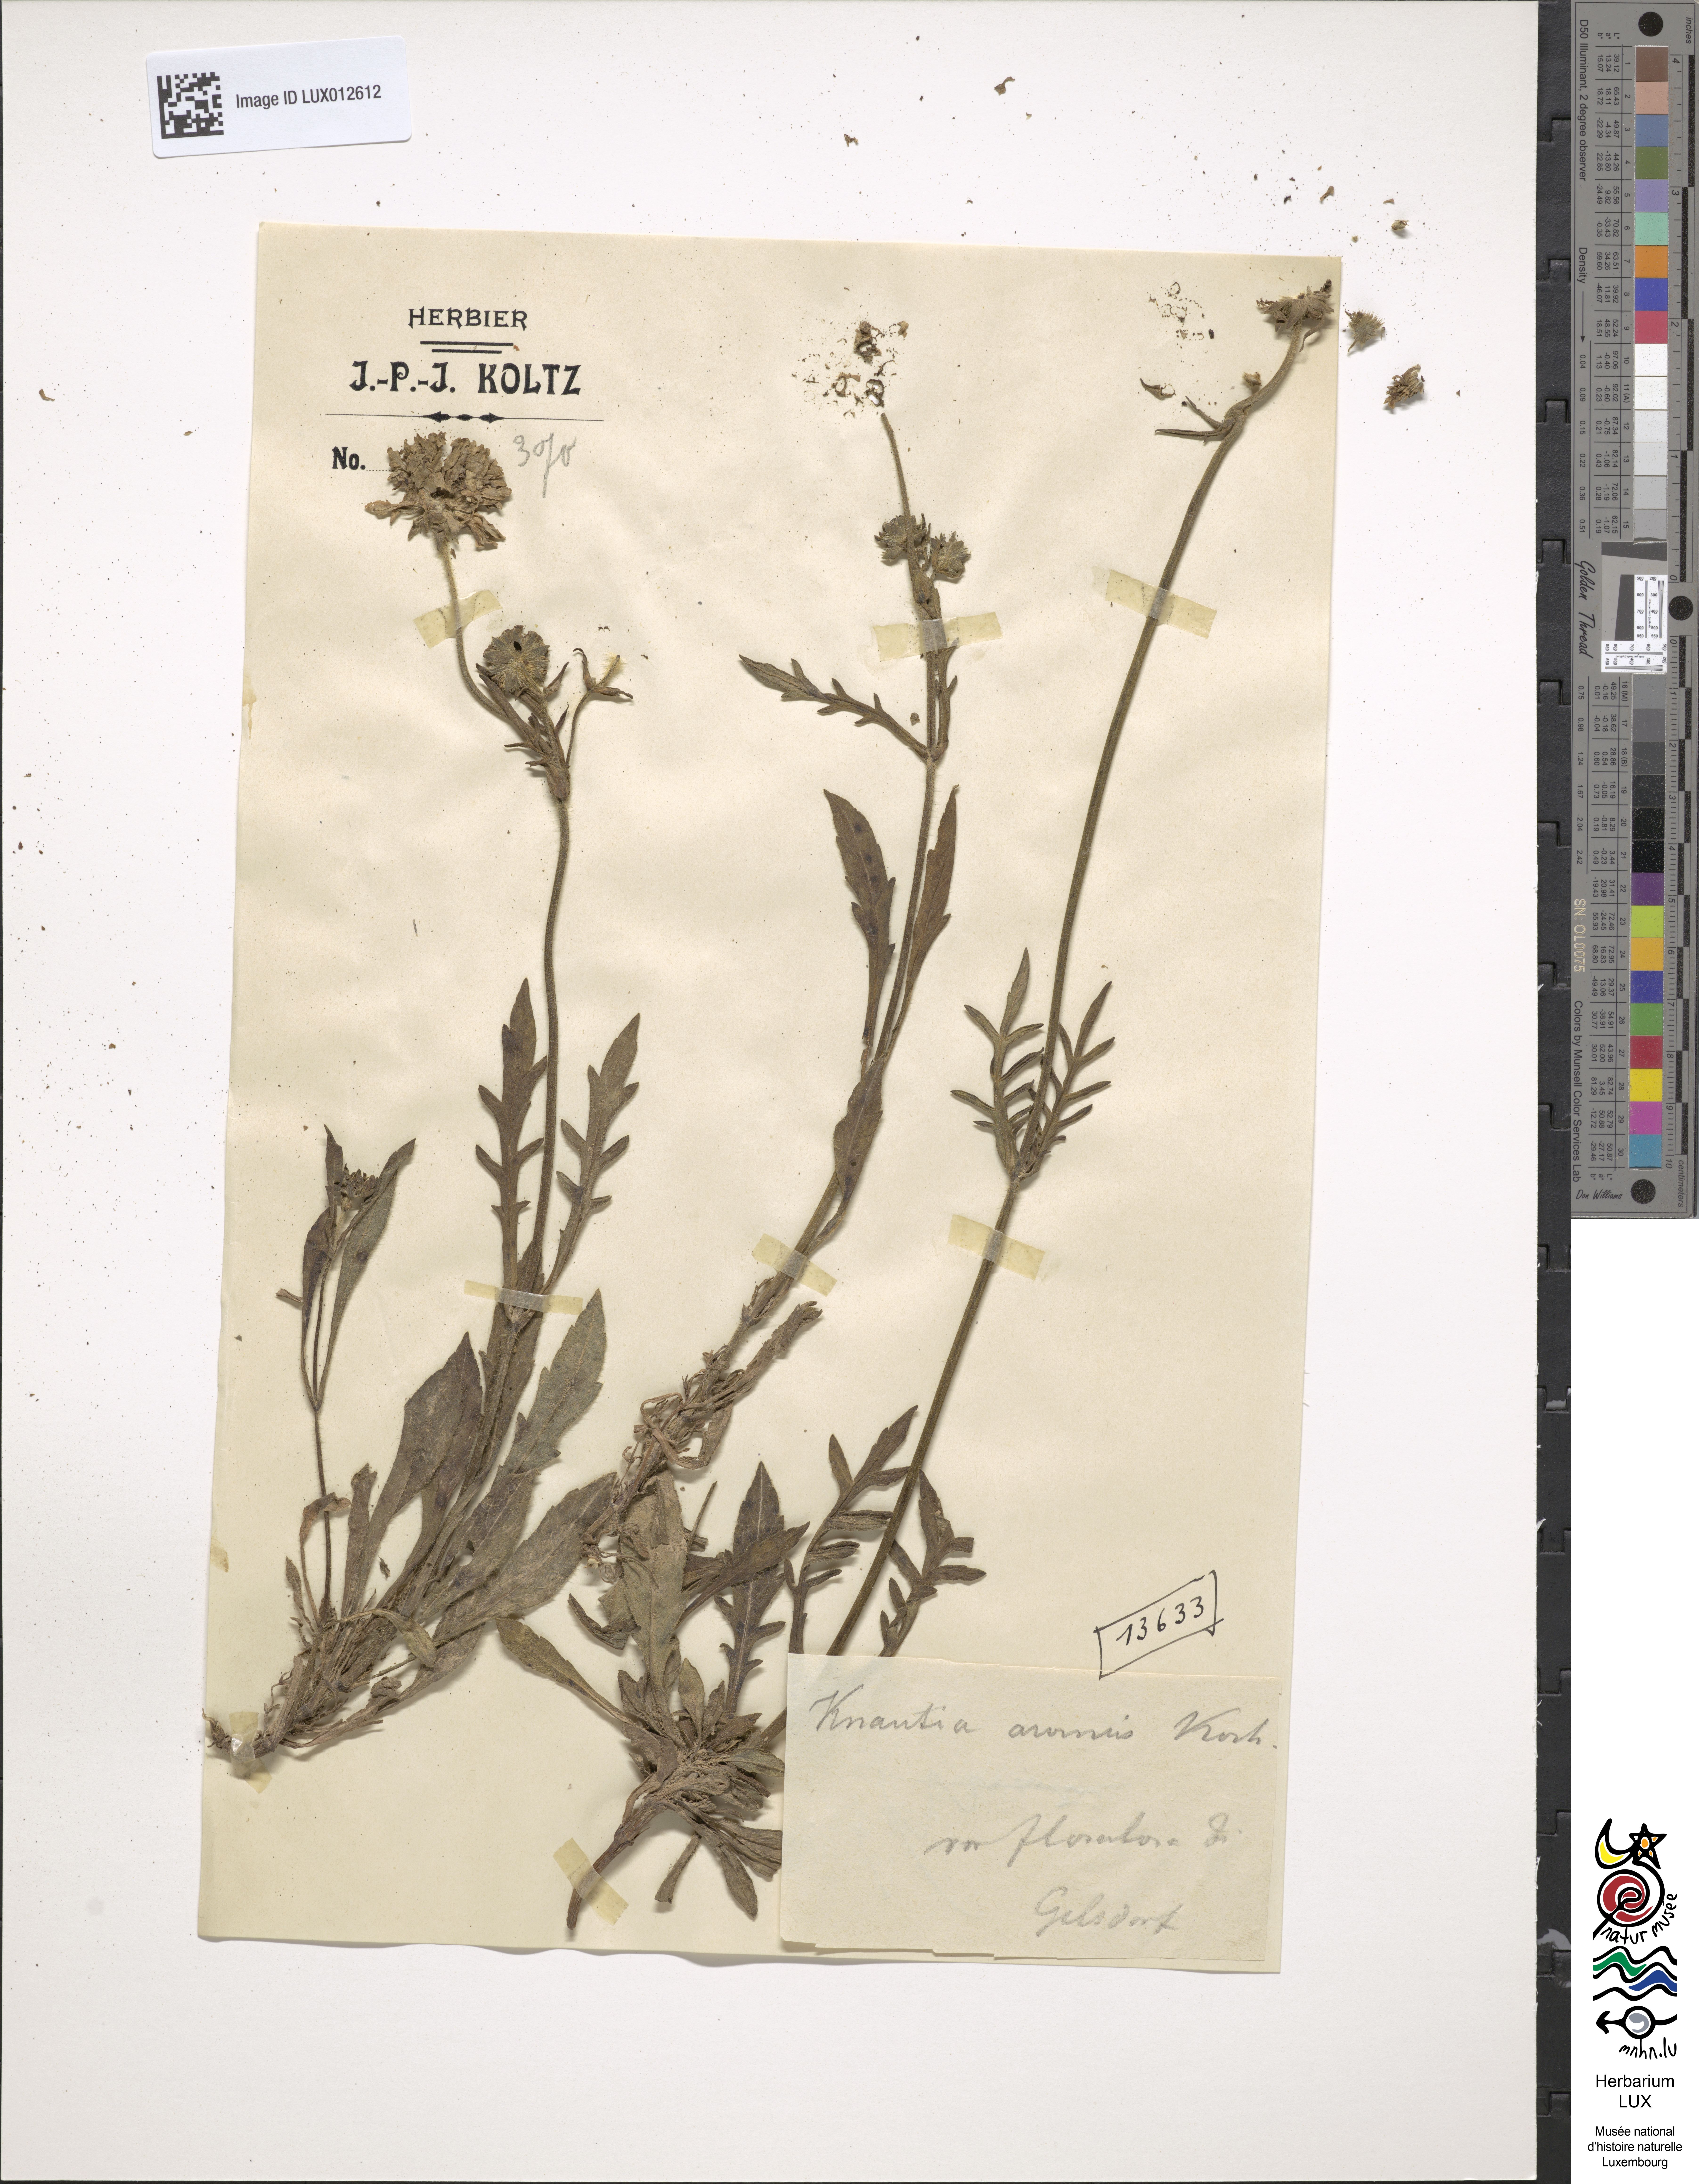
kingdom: Plantae
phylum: Tracheophyta
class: Magnoliopsida
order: Dipsacales
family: Caprifoliaceae
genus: Knautia
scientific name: Knautia arvensis
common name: Field scabiosa
